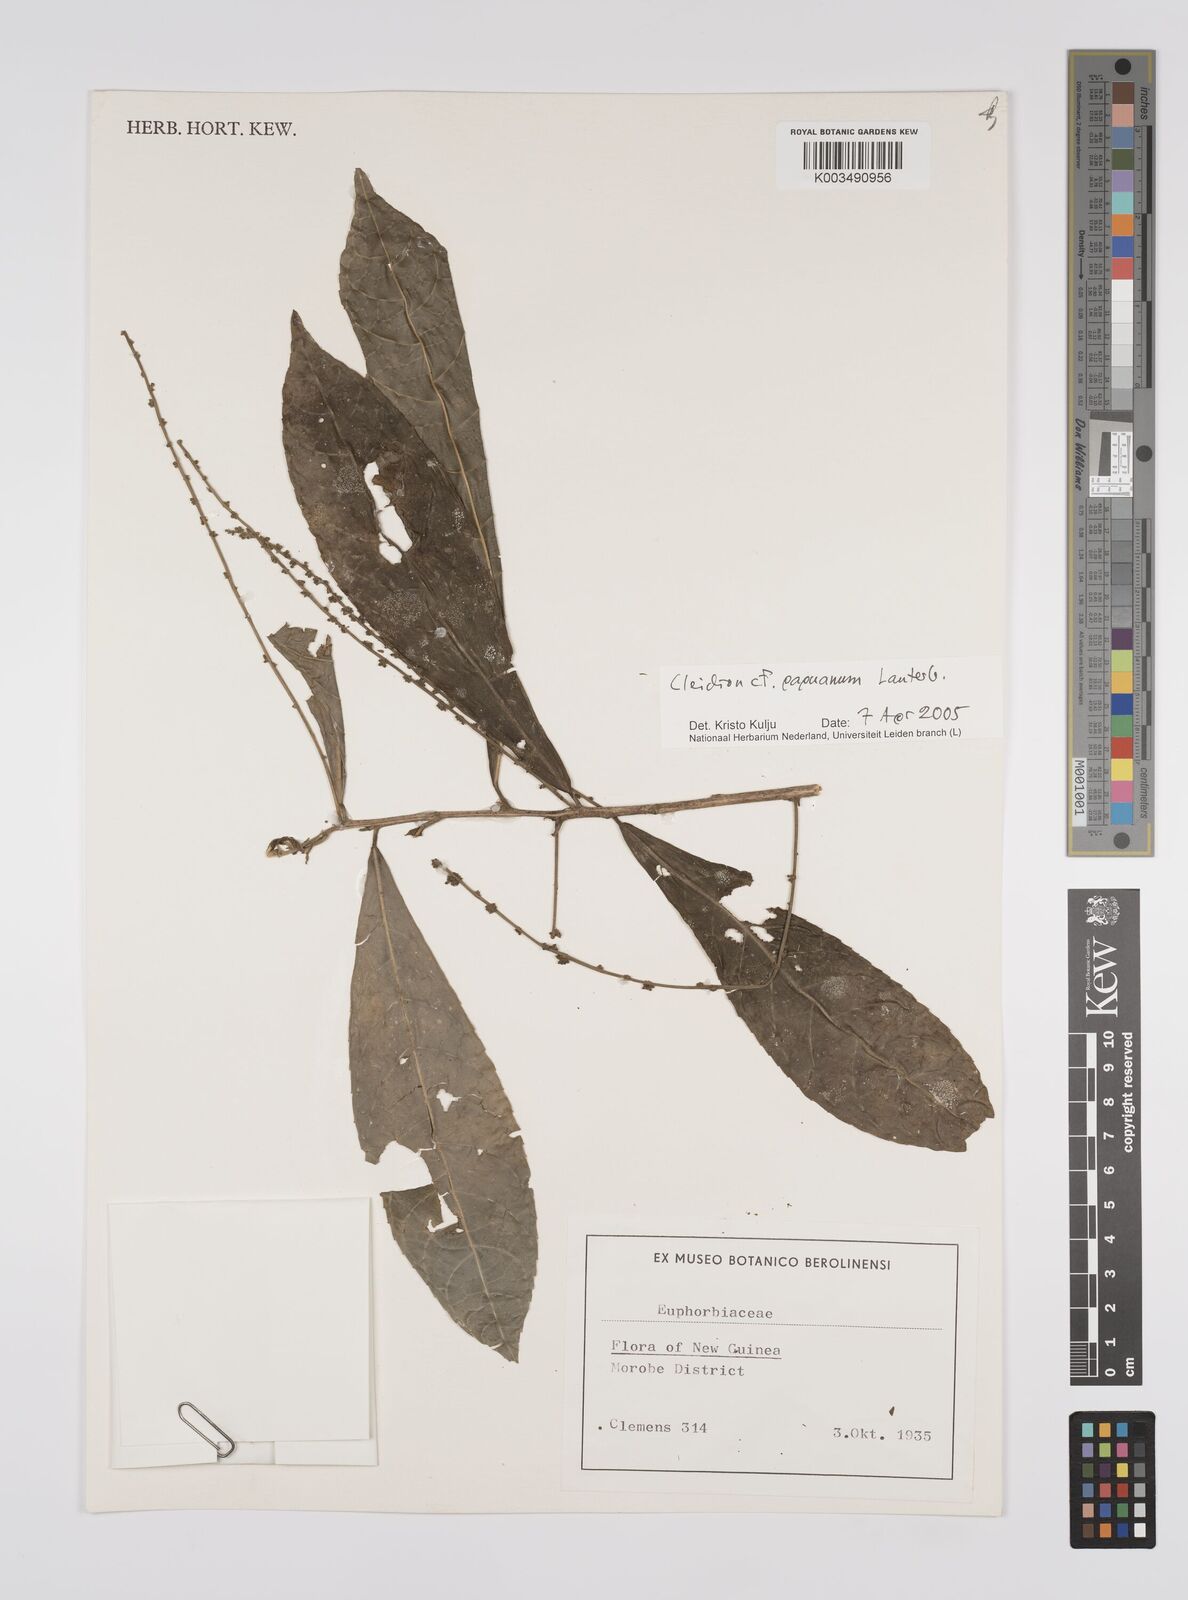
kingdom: Plantae
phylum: Tracheophyta
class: Magnoliopsida
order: Malpighiales
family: Euphorbiaceae
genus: Cleidion
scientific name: Cleidion papuanum
